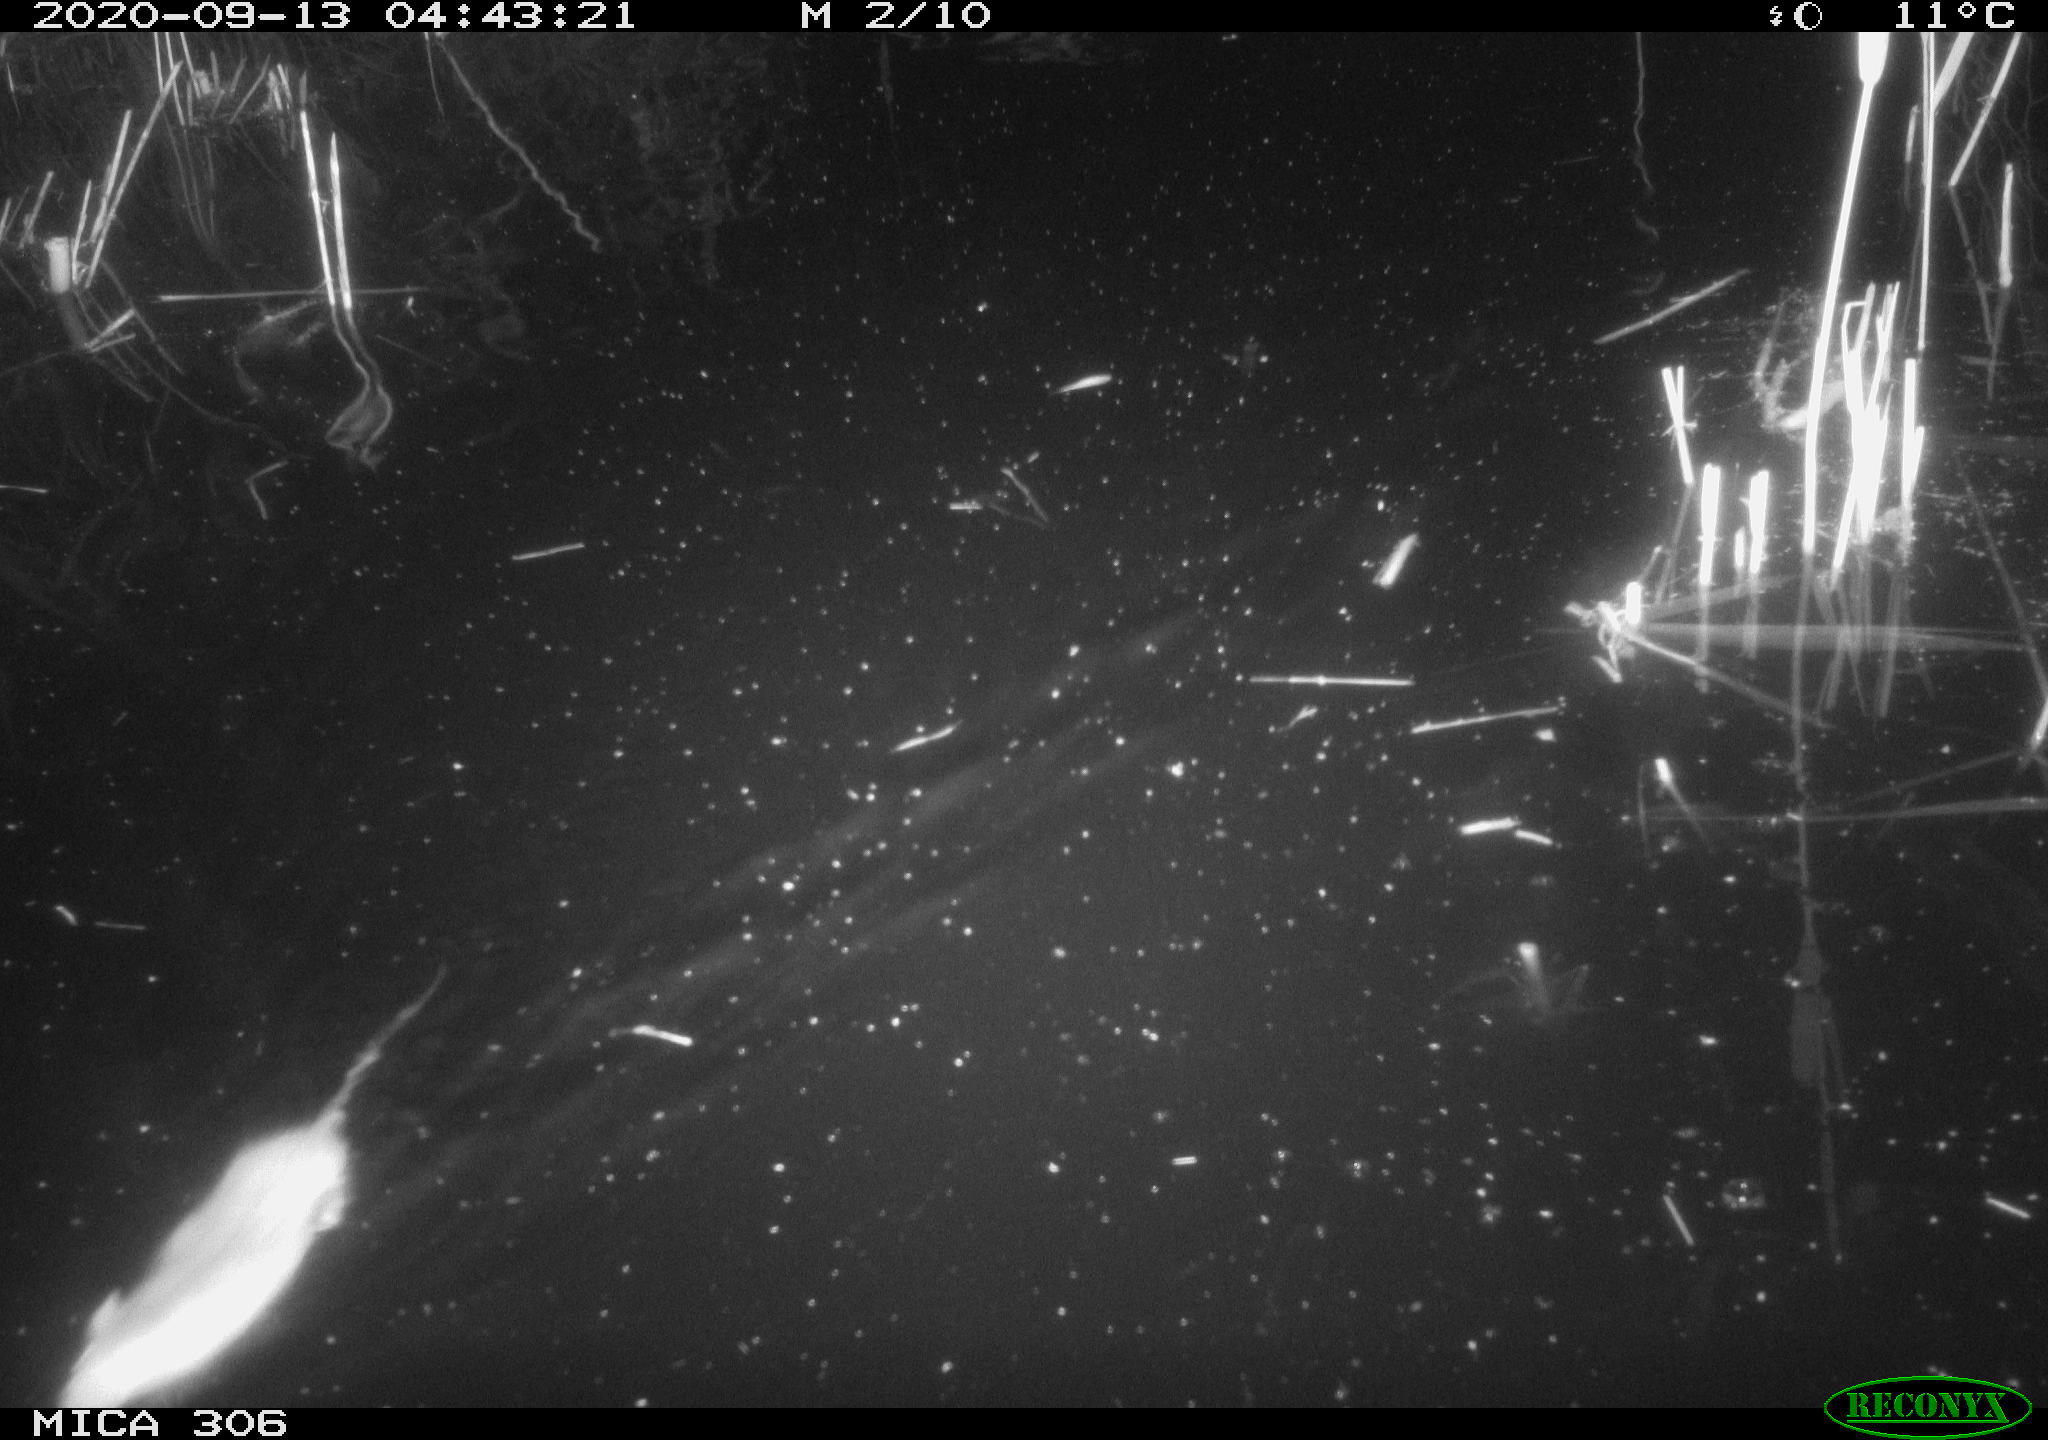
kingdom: Animalia
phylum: Chordata
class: Mammalia
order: Rodentia
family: Muridae
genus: Rattus
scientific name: Rattus norvegicus
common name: Brown rat
